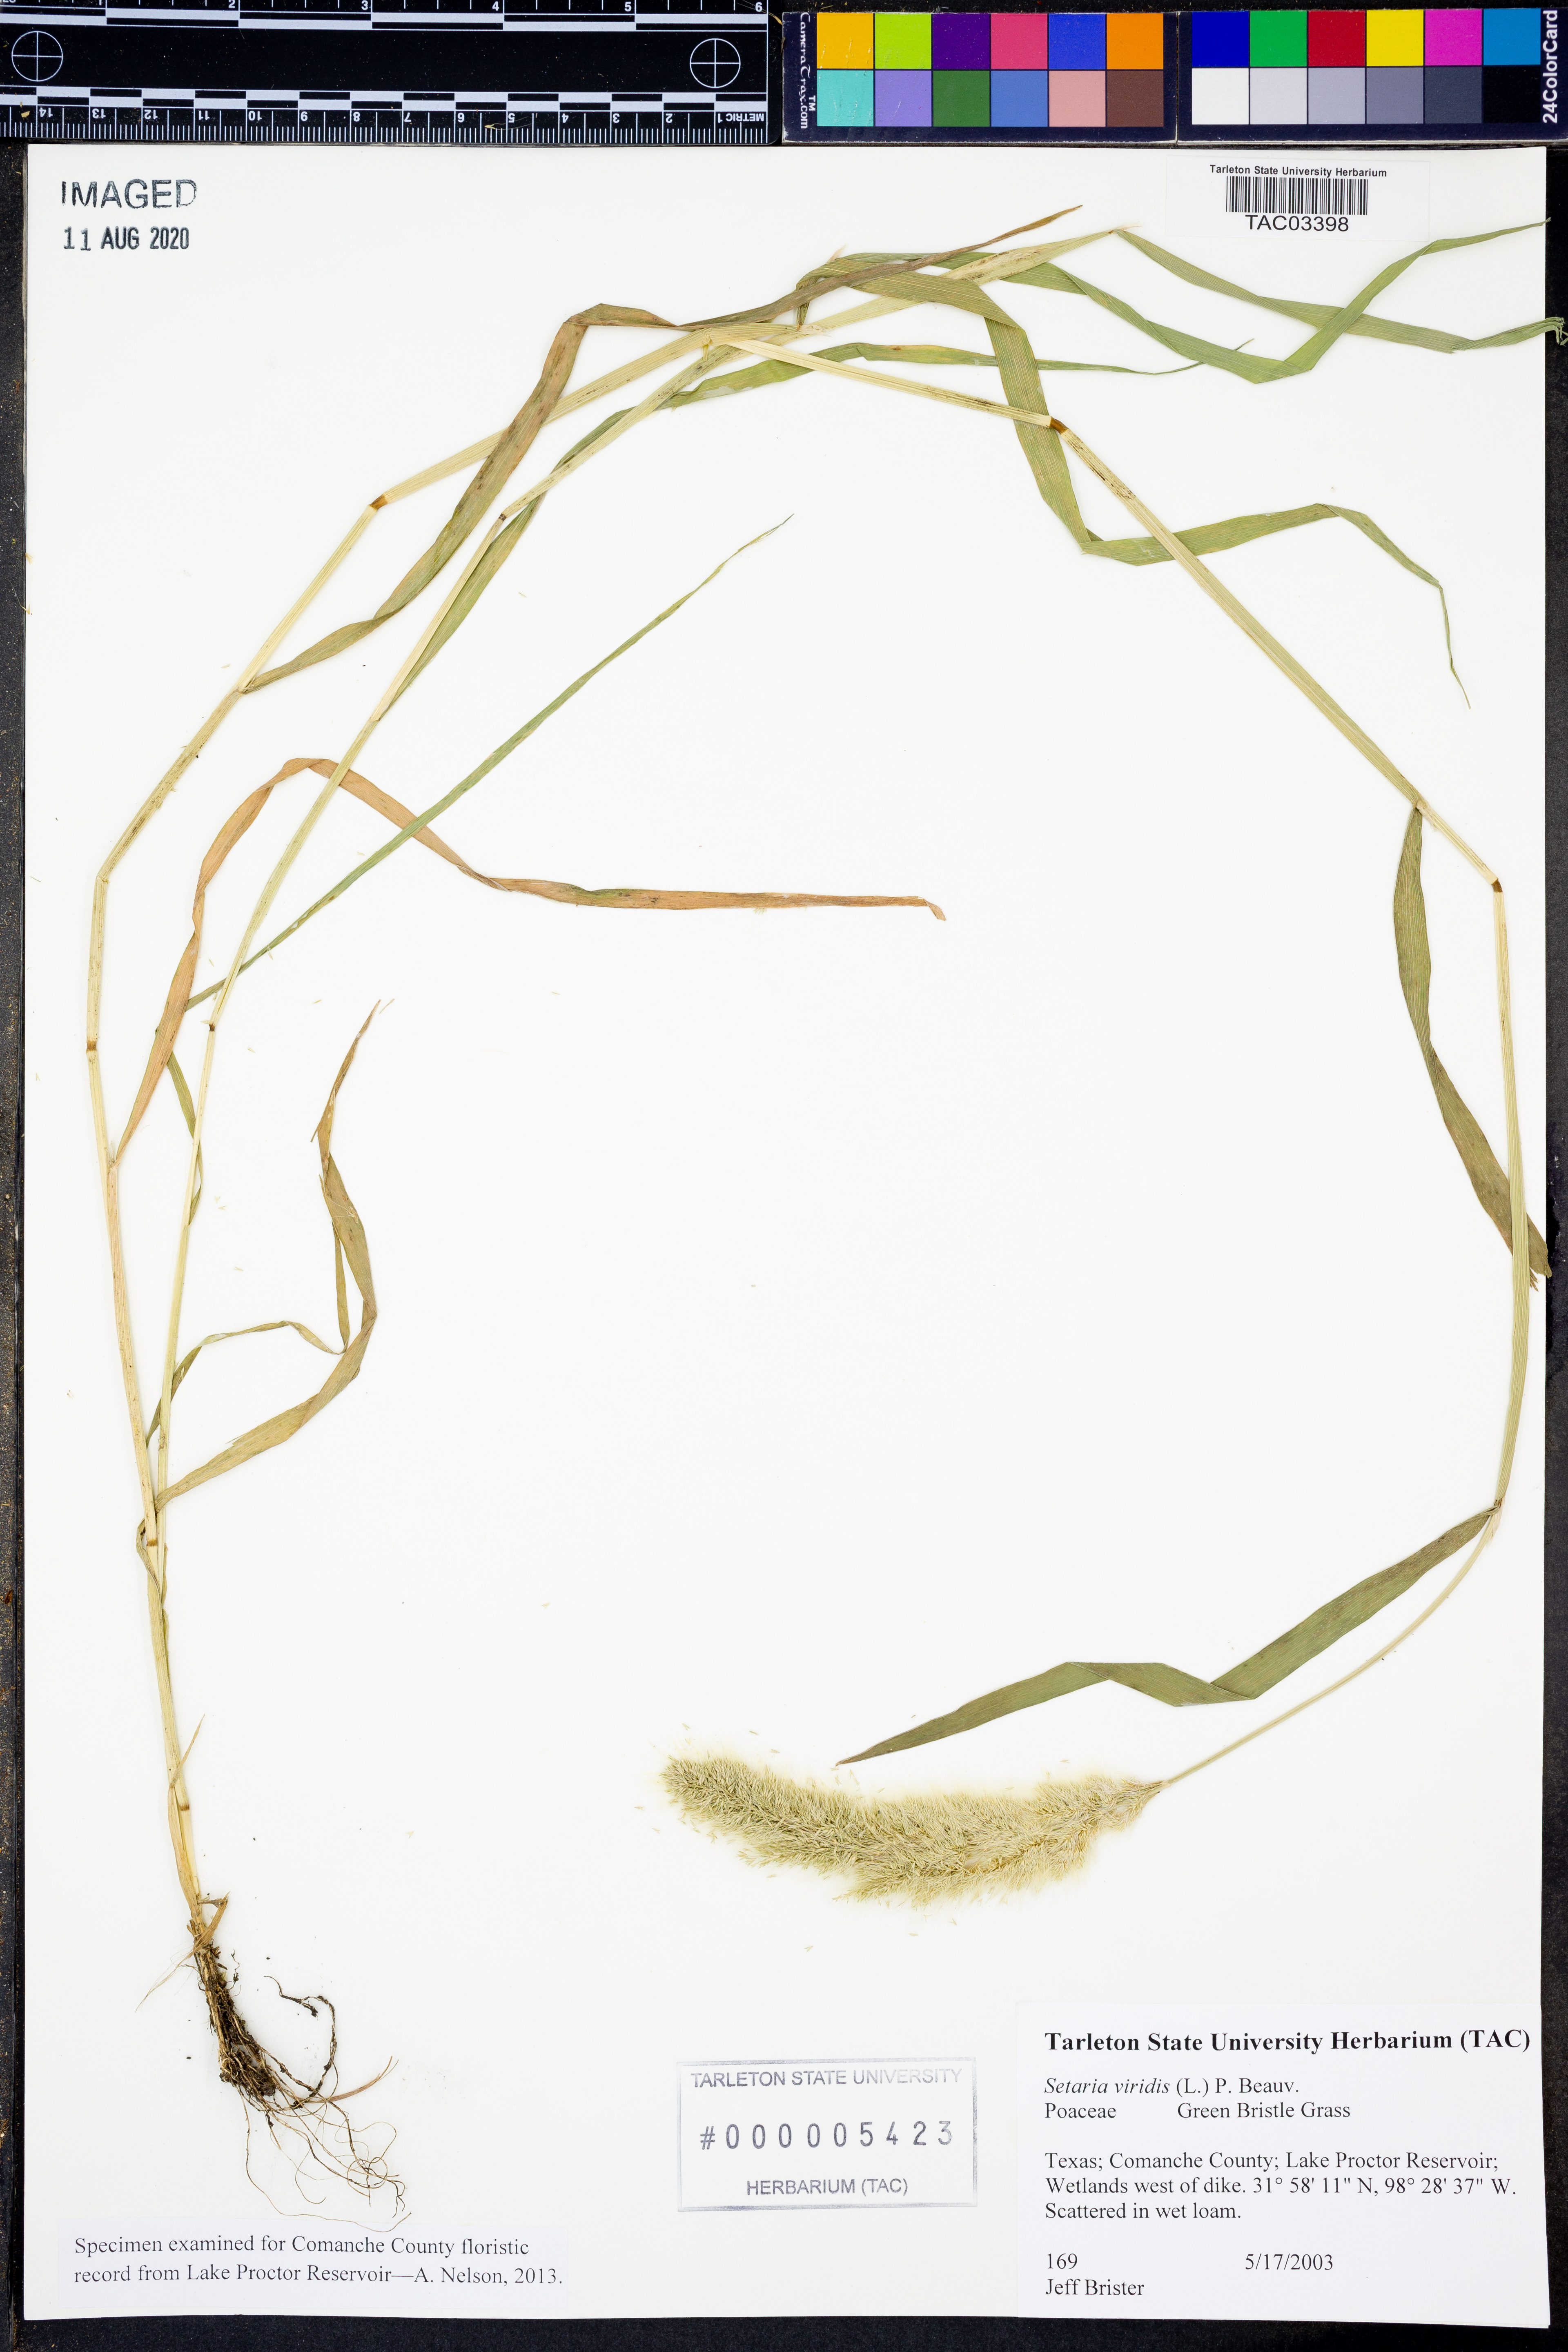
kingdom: Plantae
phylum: Tracheophyta
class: Liliopsida
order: Poales
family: Poaceae
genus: Setaria
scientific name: Setaria viridis
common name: Green bristlegrass
